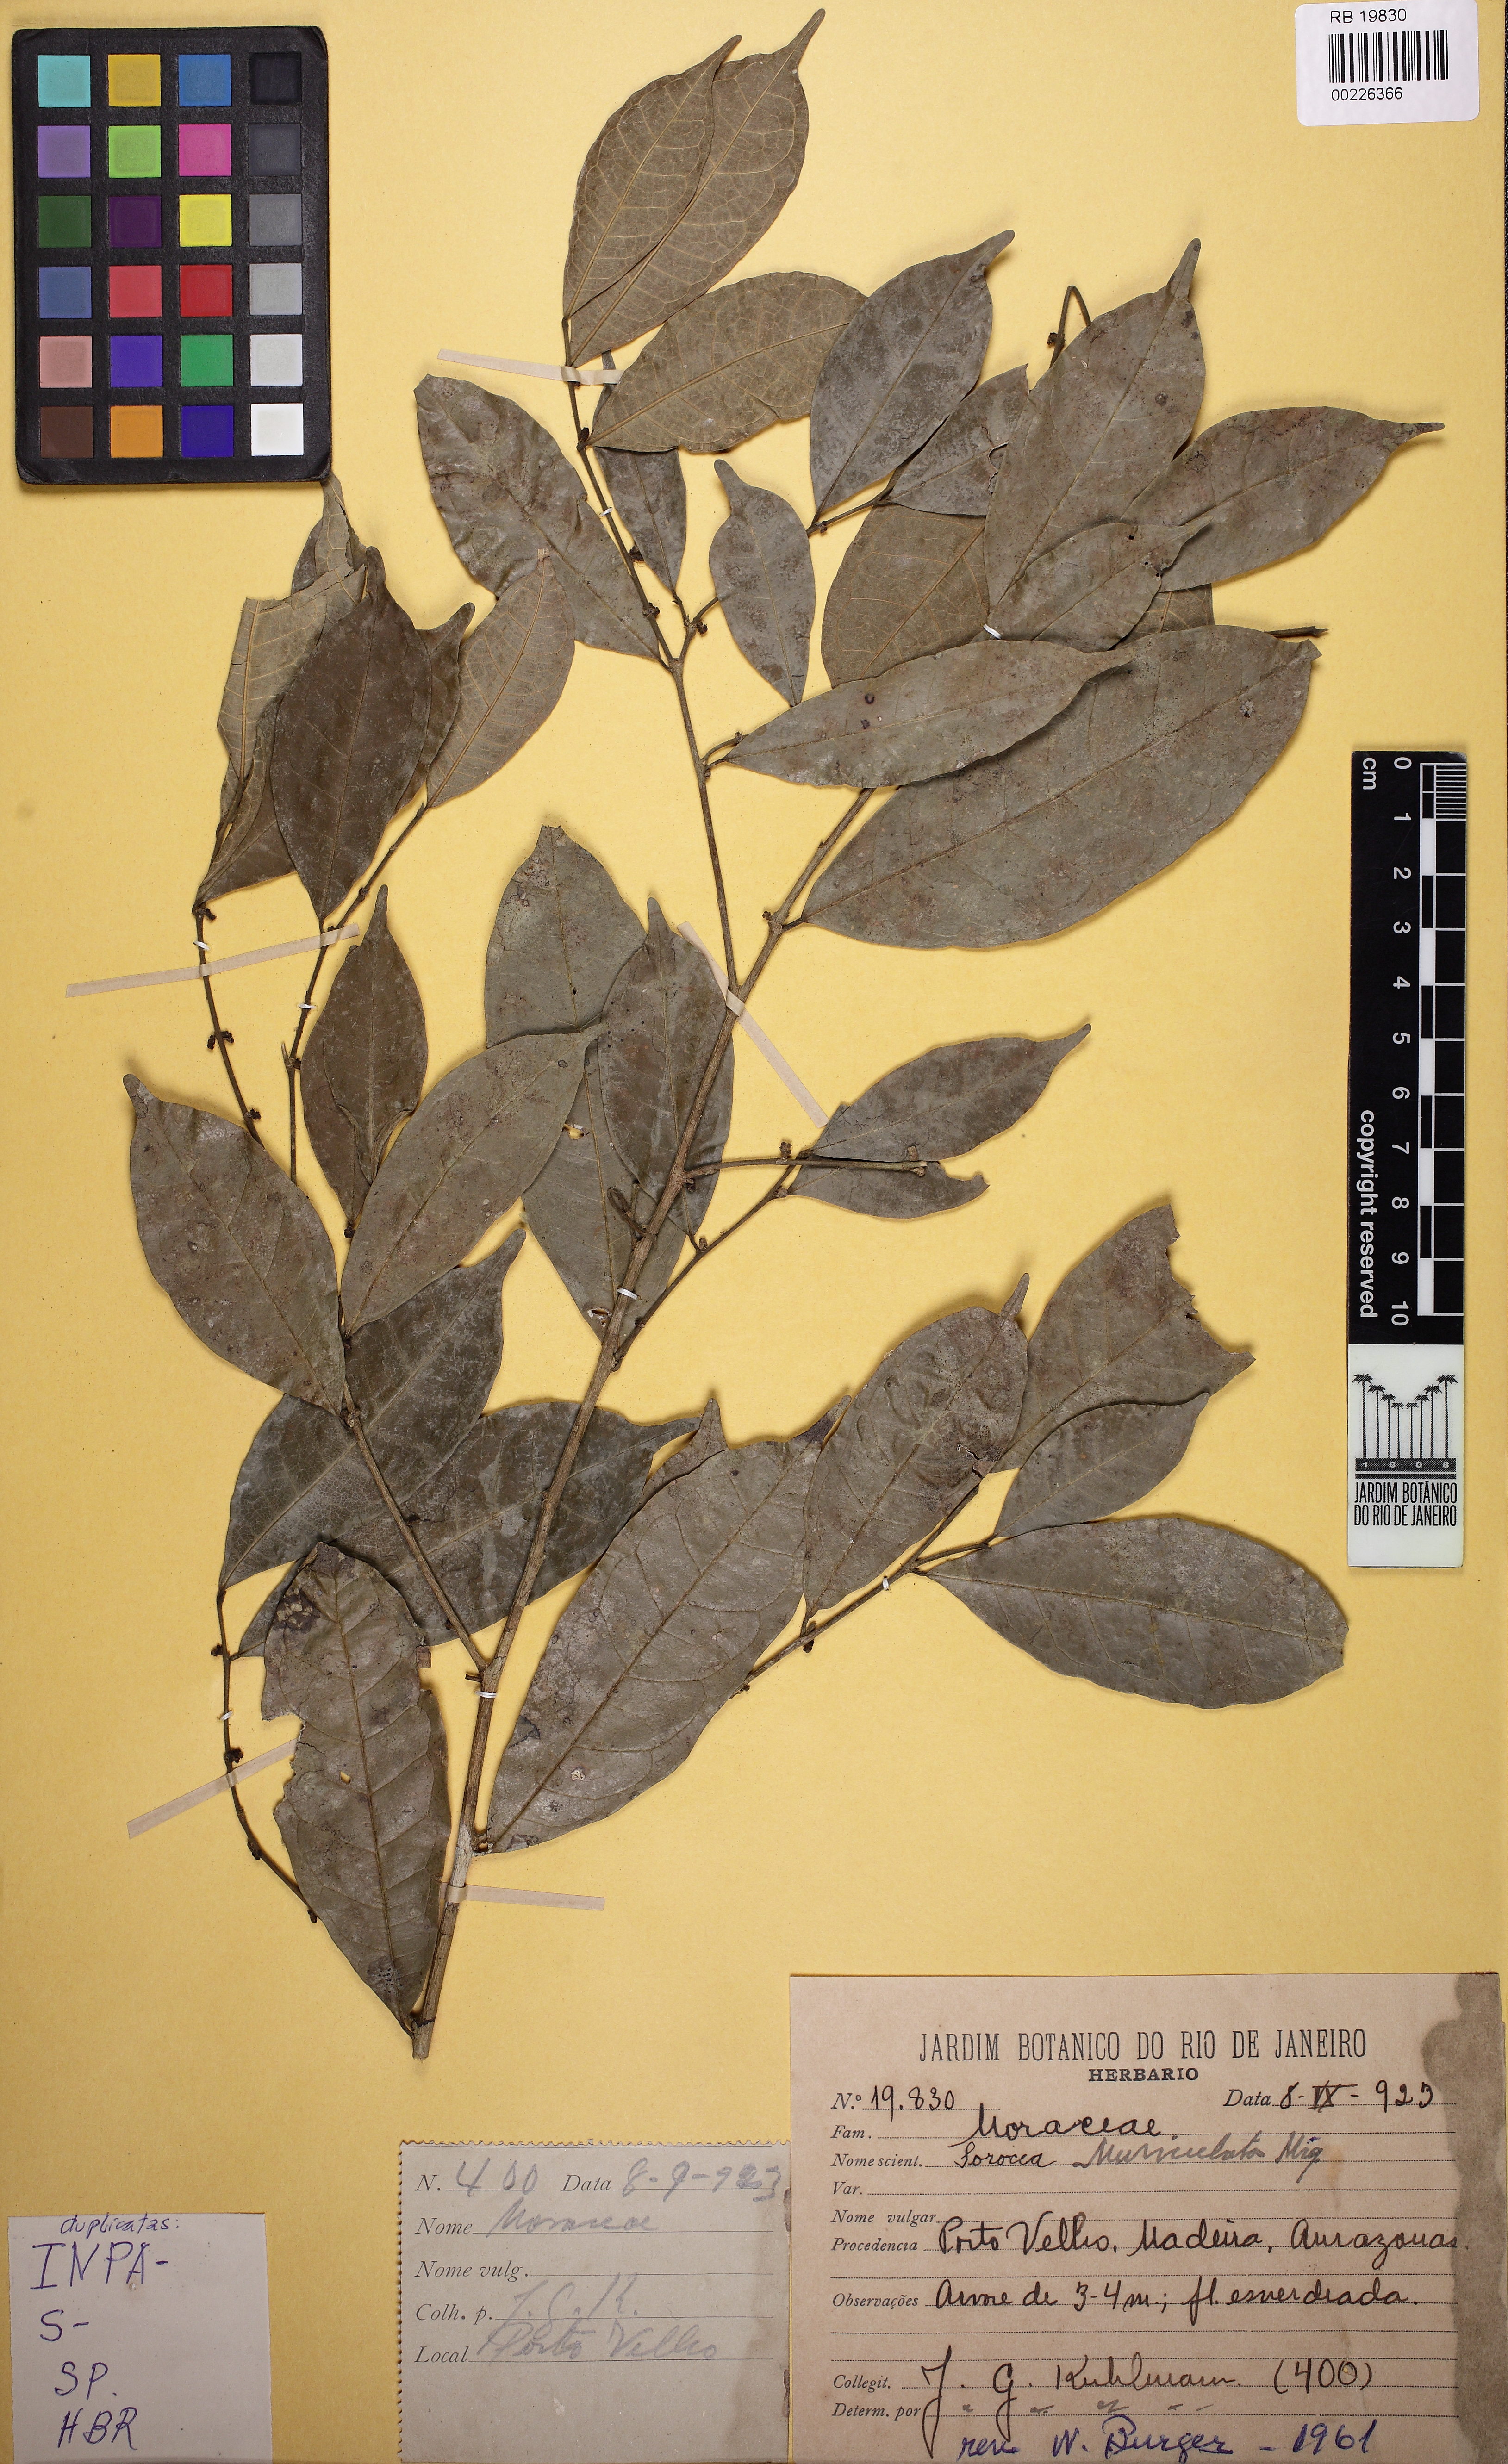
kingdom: Plantae
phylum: Tracheophyta
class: Magnoliopsida
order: Rosales
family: Moraceae
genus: Sorocea
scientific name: Sorocea muriculata
